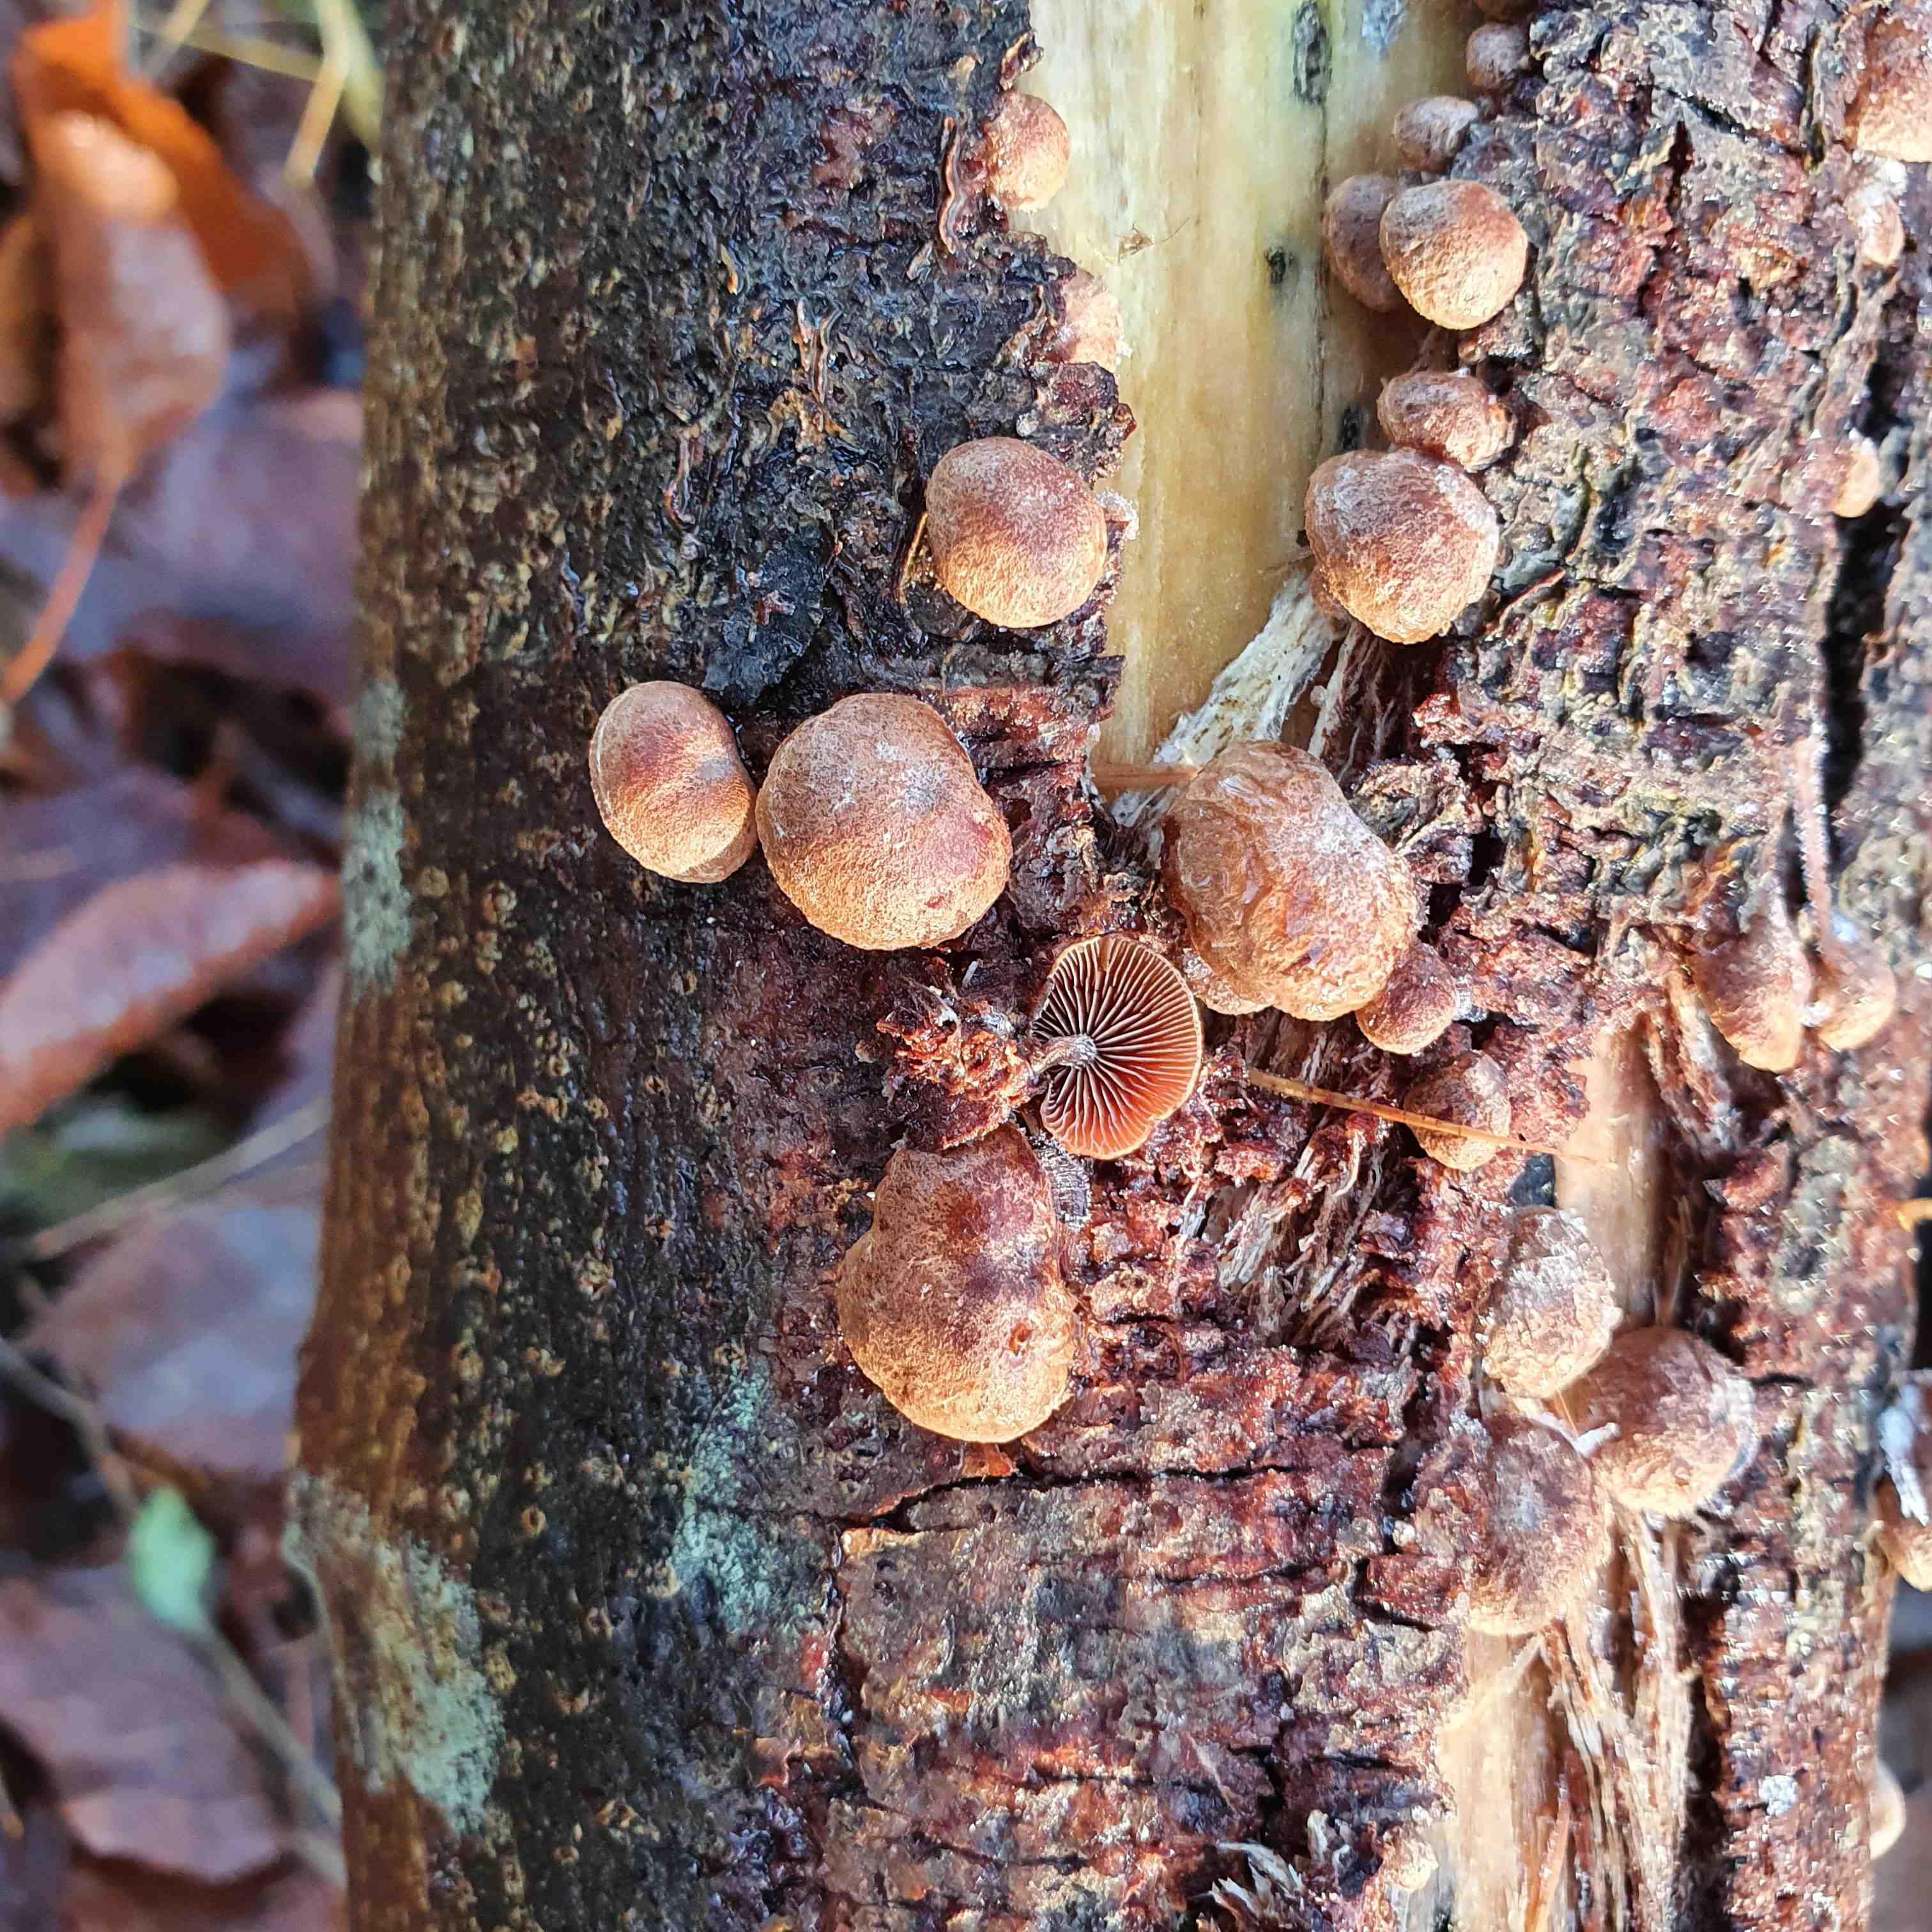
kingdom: Fungi
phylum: Basidiomycota
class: Agaricomycetes
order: Agaricales
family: Strophariaceae
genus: Deconica
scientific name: Deconica horizontalis
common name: ved-stråhat
